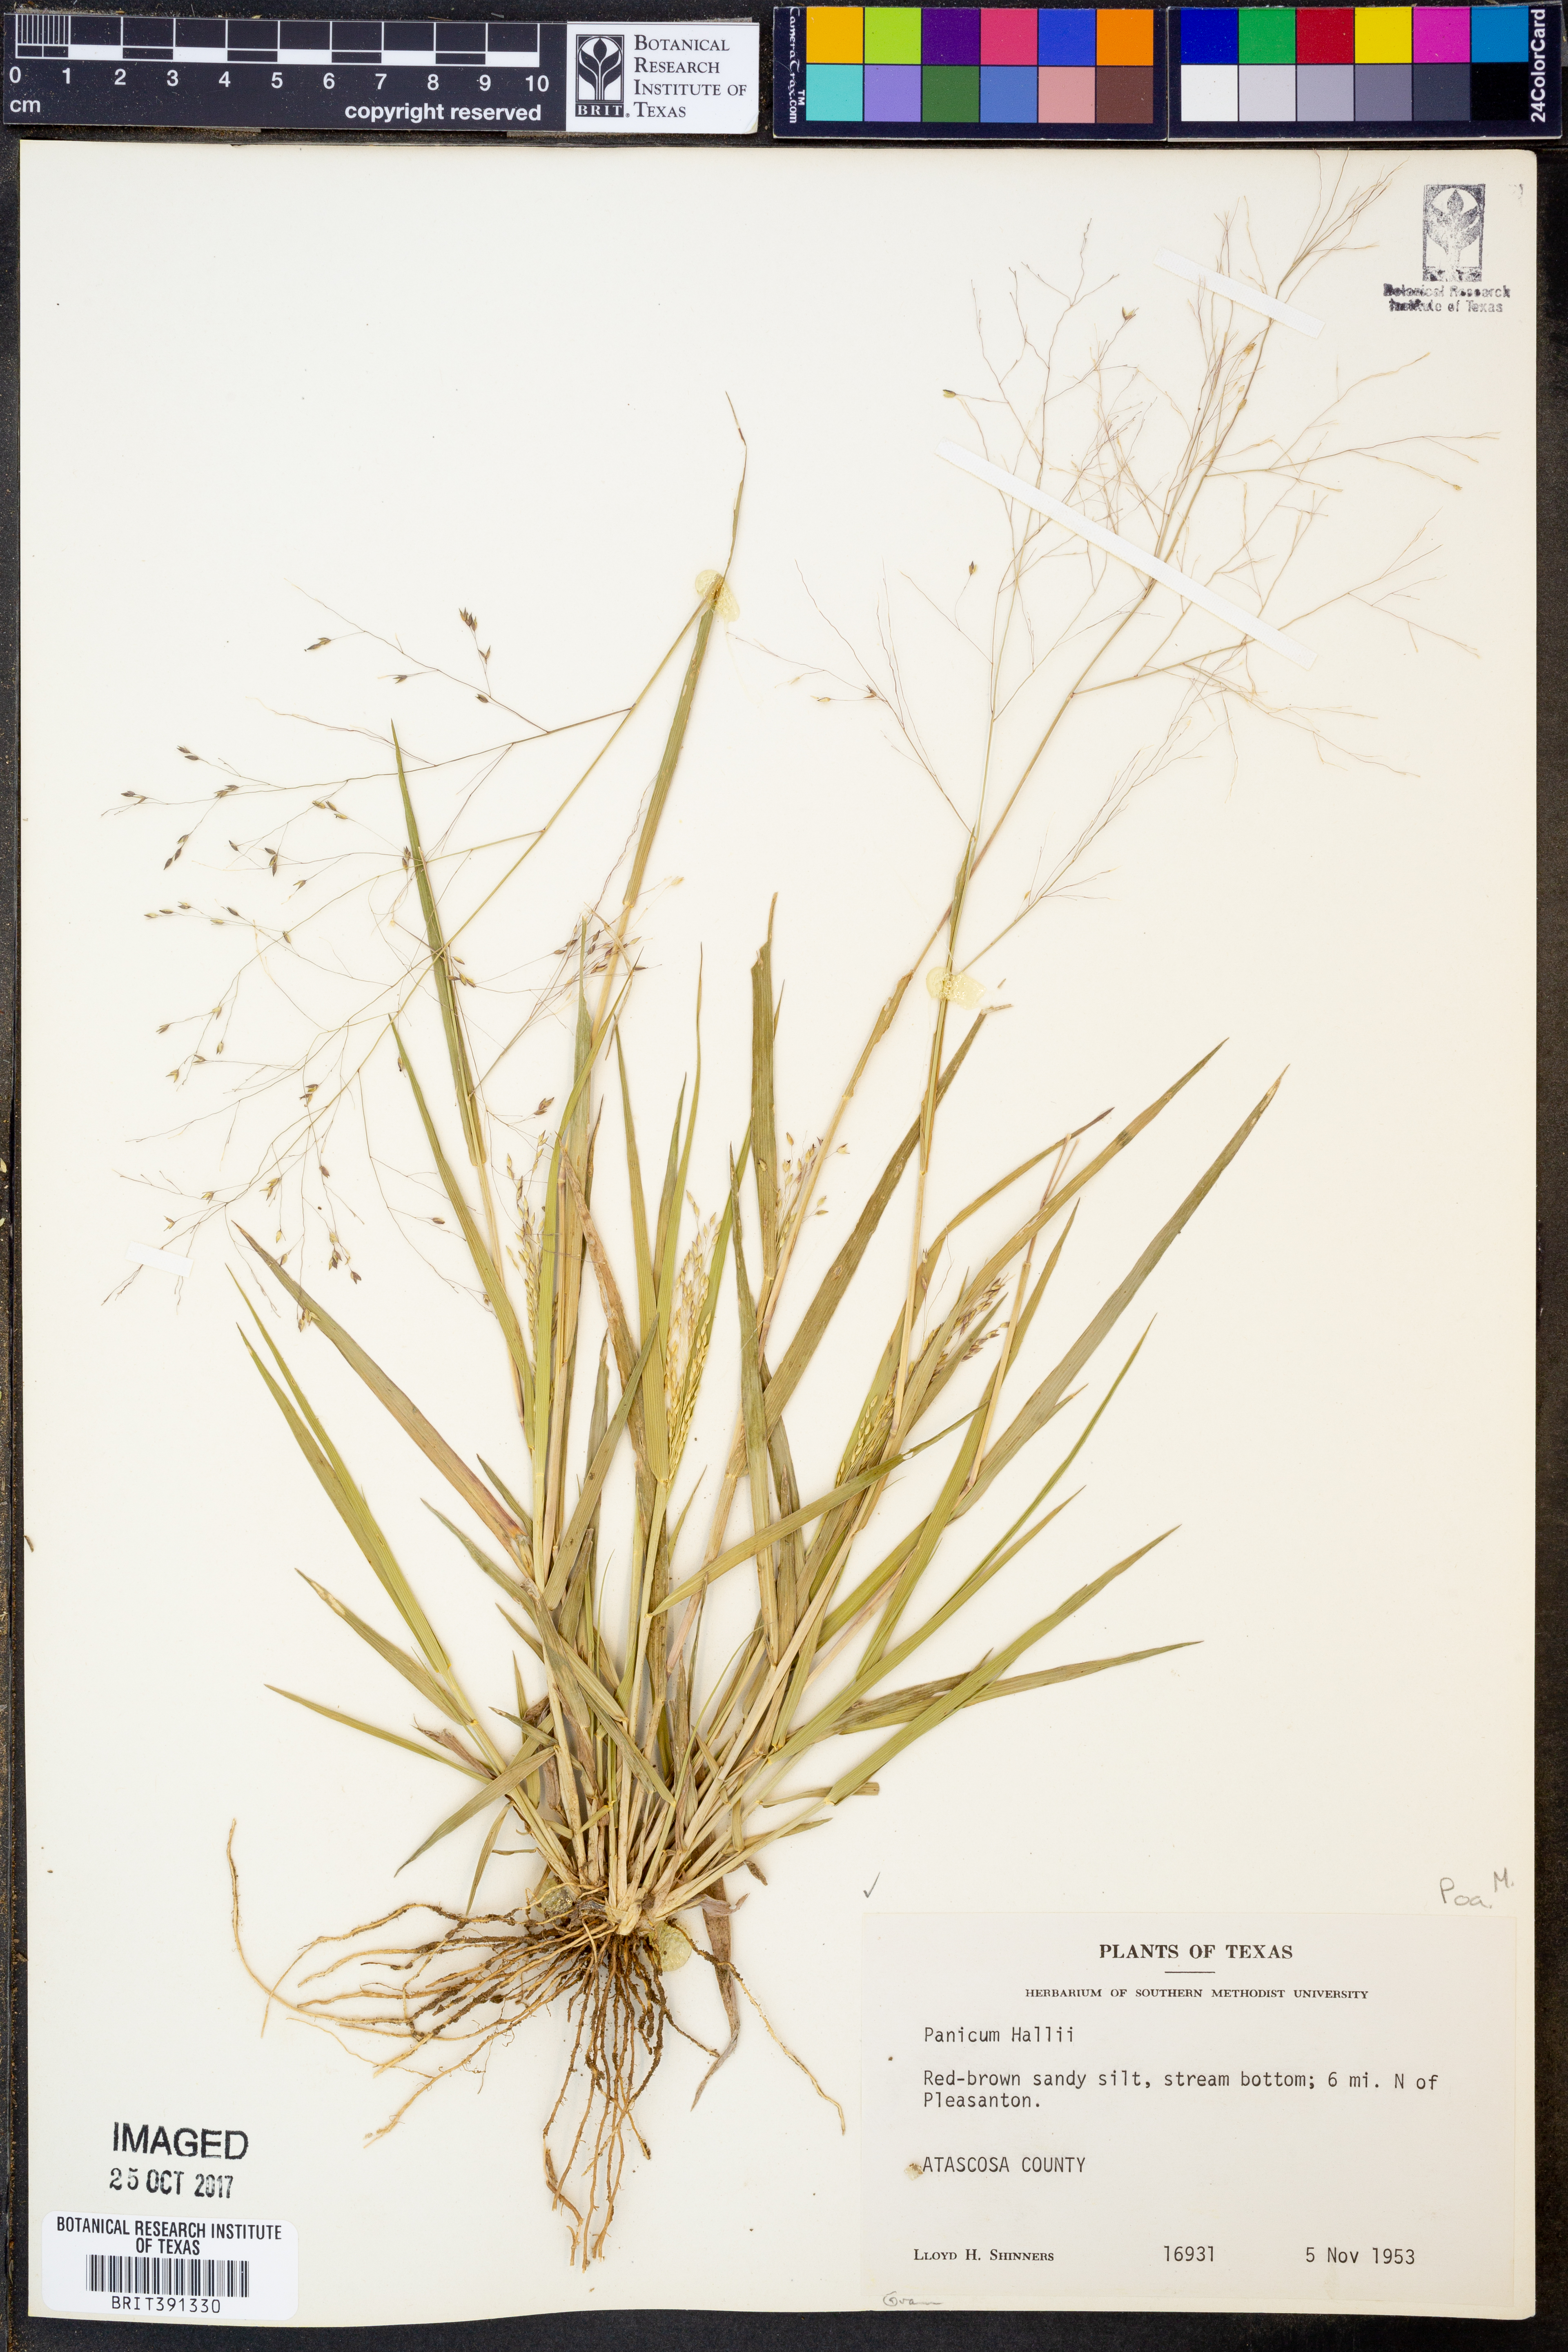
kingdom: Plantae
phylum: Tracheophyta
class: Liliopsida
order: Poales
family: Poaceae
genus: Panicum
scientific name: Panicum hallii
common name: Hall's witchgrass
